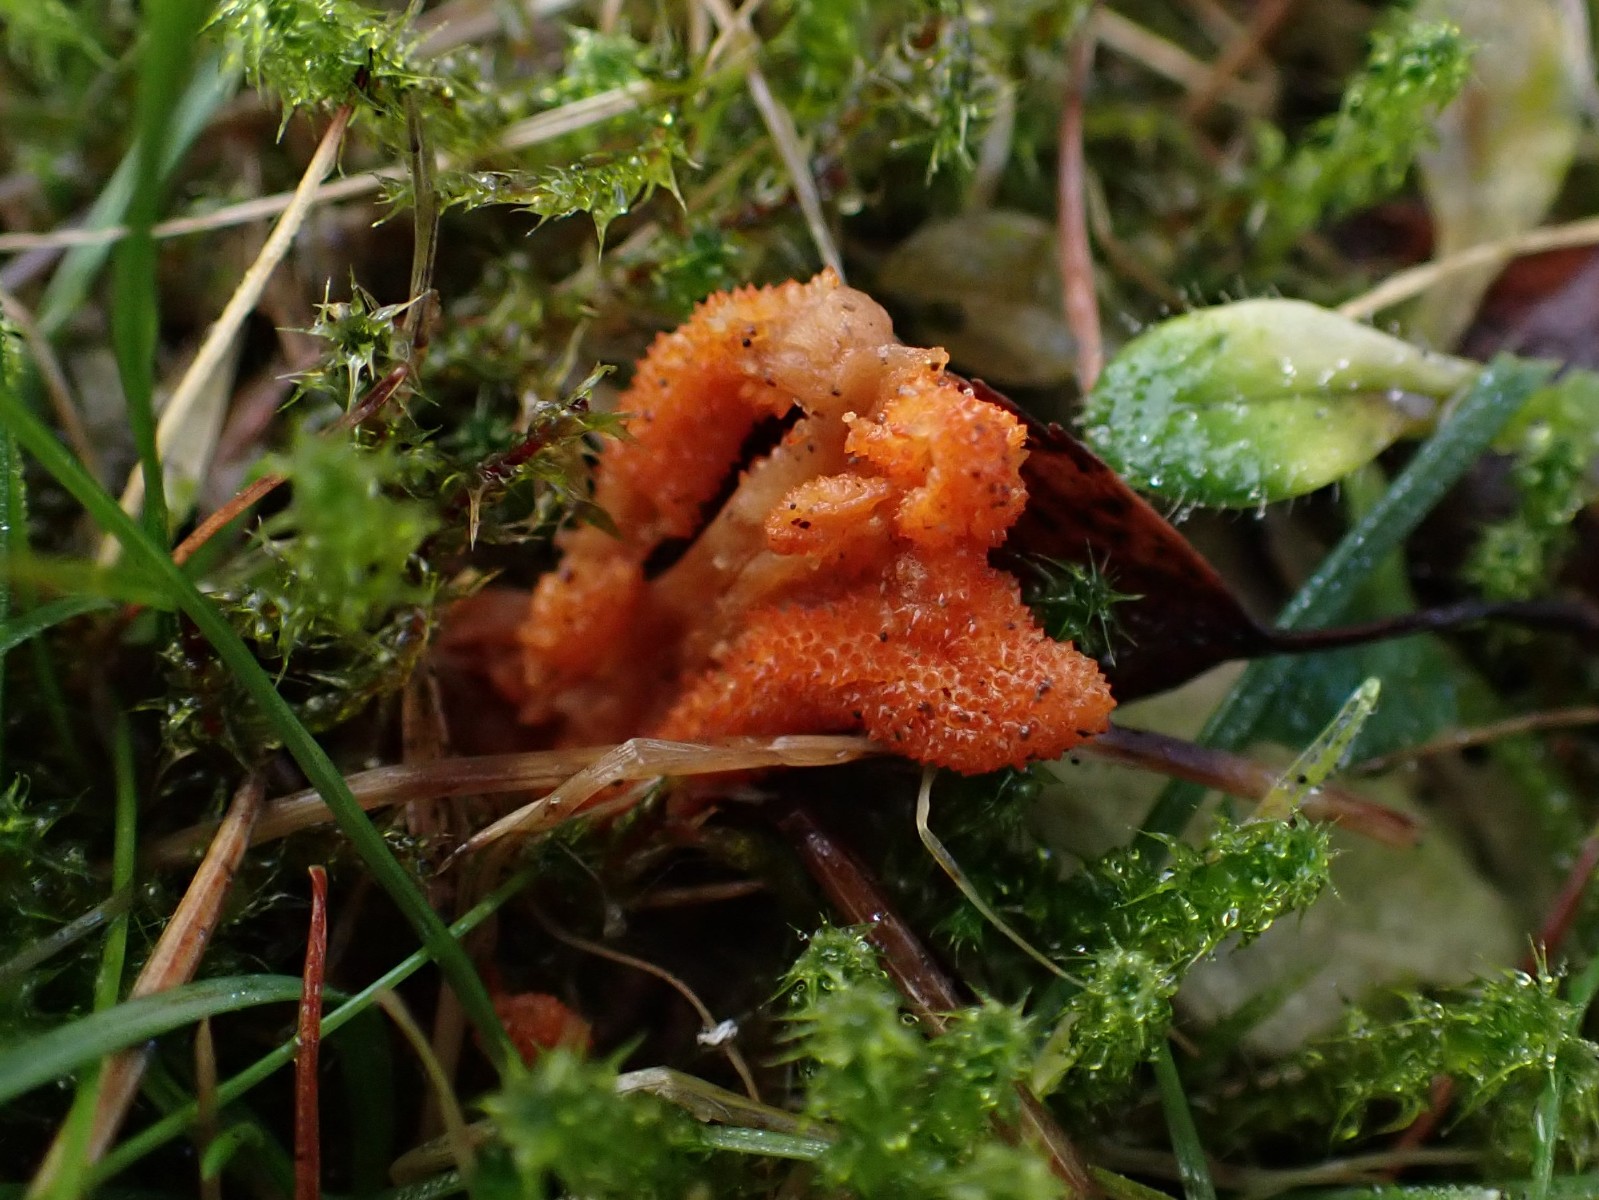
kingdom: Fungi
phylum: Ascomycota
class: Sordariomycetes
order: Hypocreales
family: Cordycipitaceae
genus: Cordyceps
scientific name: Cordyceps militaris
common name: puppe-snyltekølle
